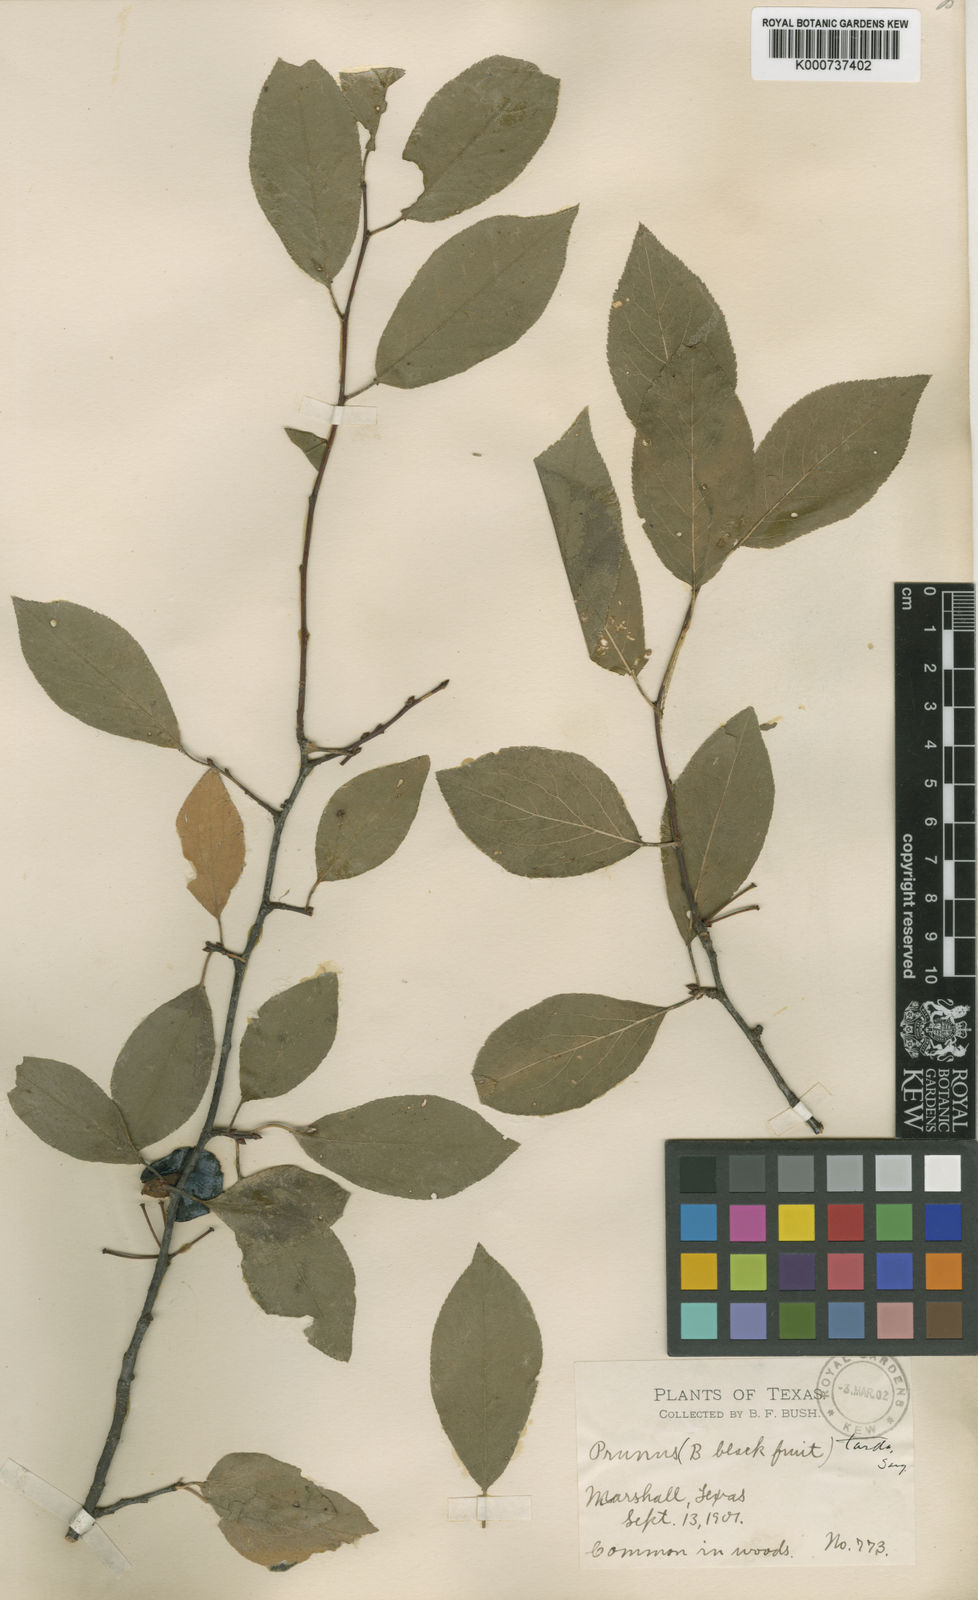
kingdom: Plantae
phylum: Tracheophyta
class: Magnoliopsida
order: Rosales
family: Rosaceae
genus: Prunus
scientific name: Prunus umbellata
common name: Allegheny plum
